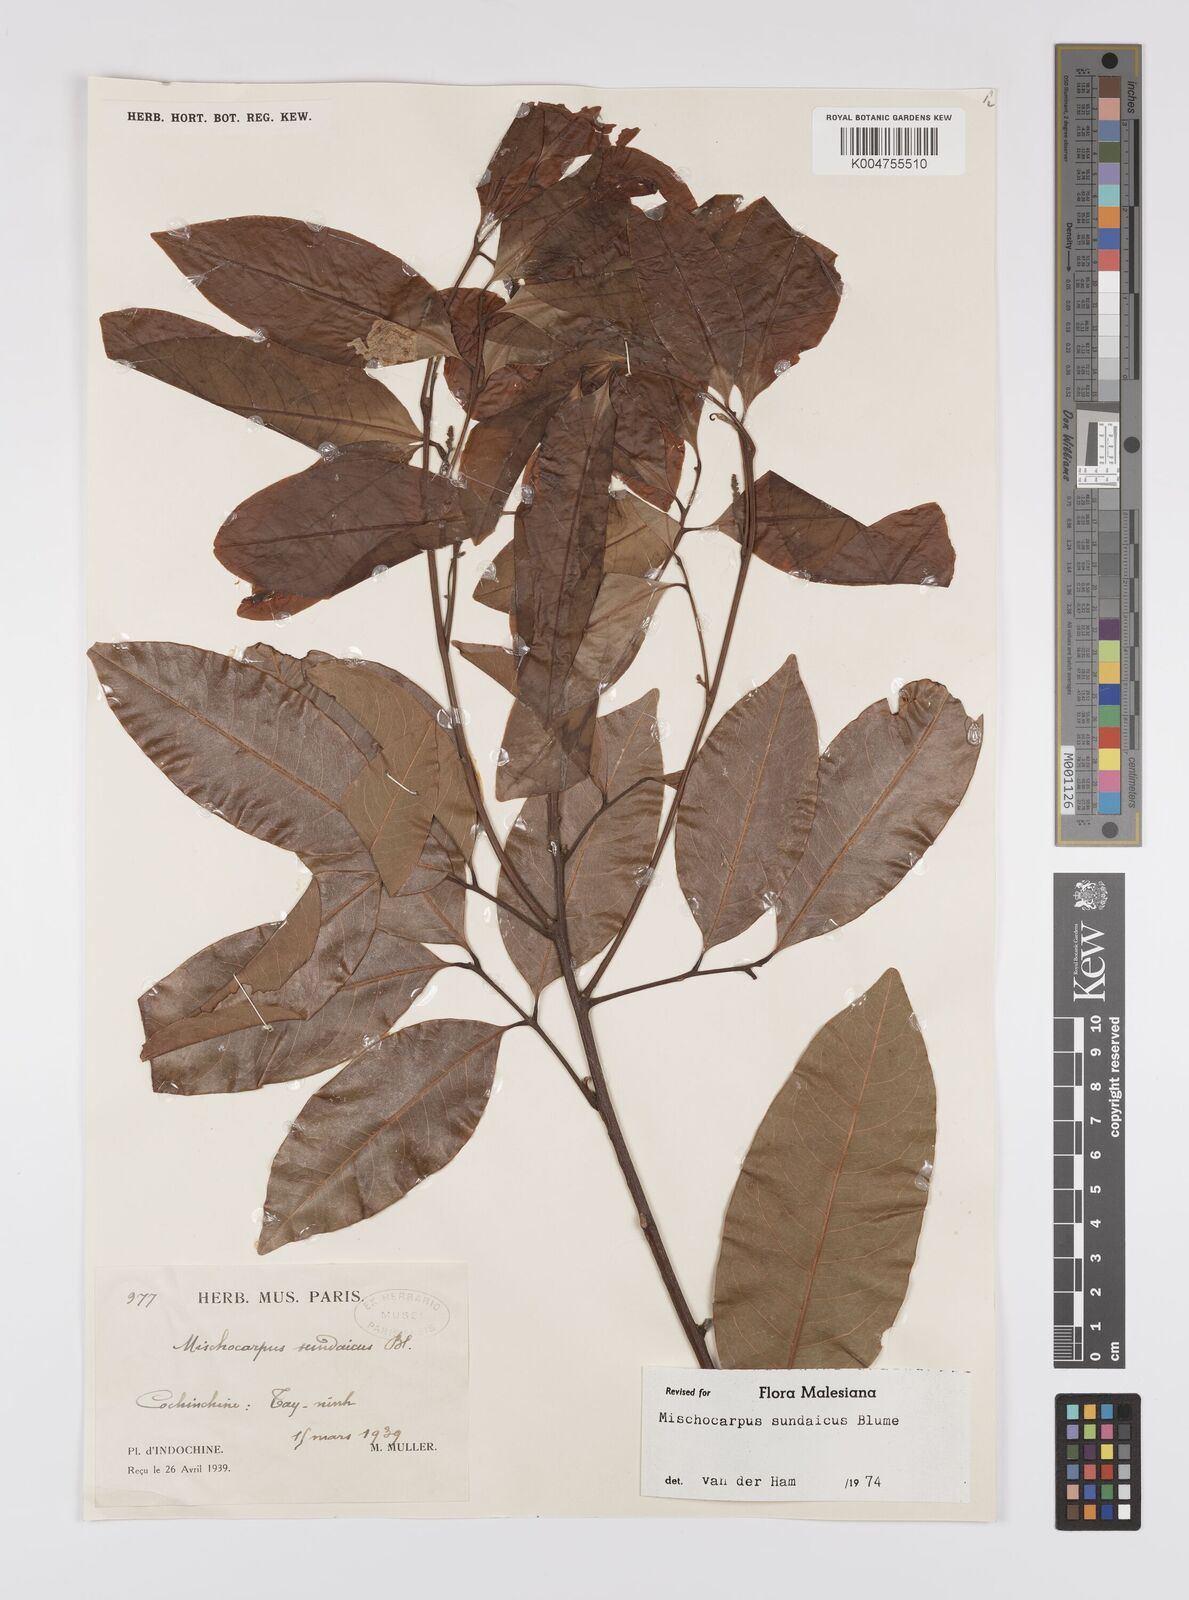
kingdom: Plantae
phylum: Tracheophyta
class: Magnoliopsida
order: Sapindales
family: Sapindaceae
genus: Mischocarpus
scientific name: Mischocarpus sundaicus
